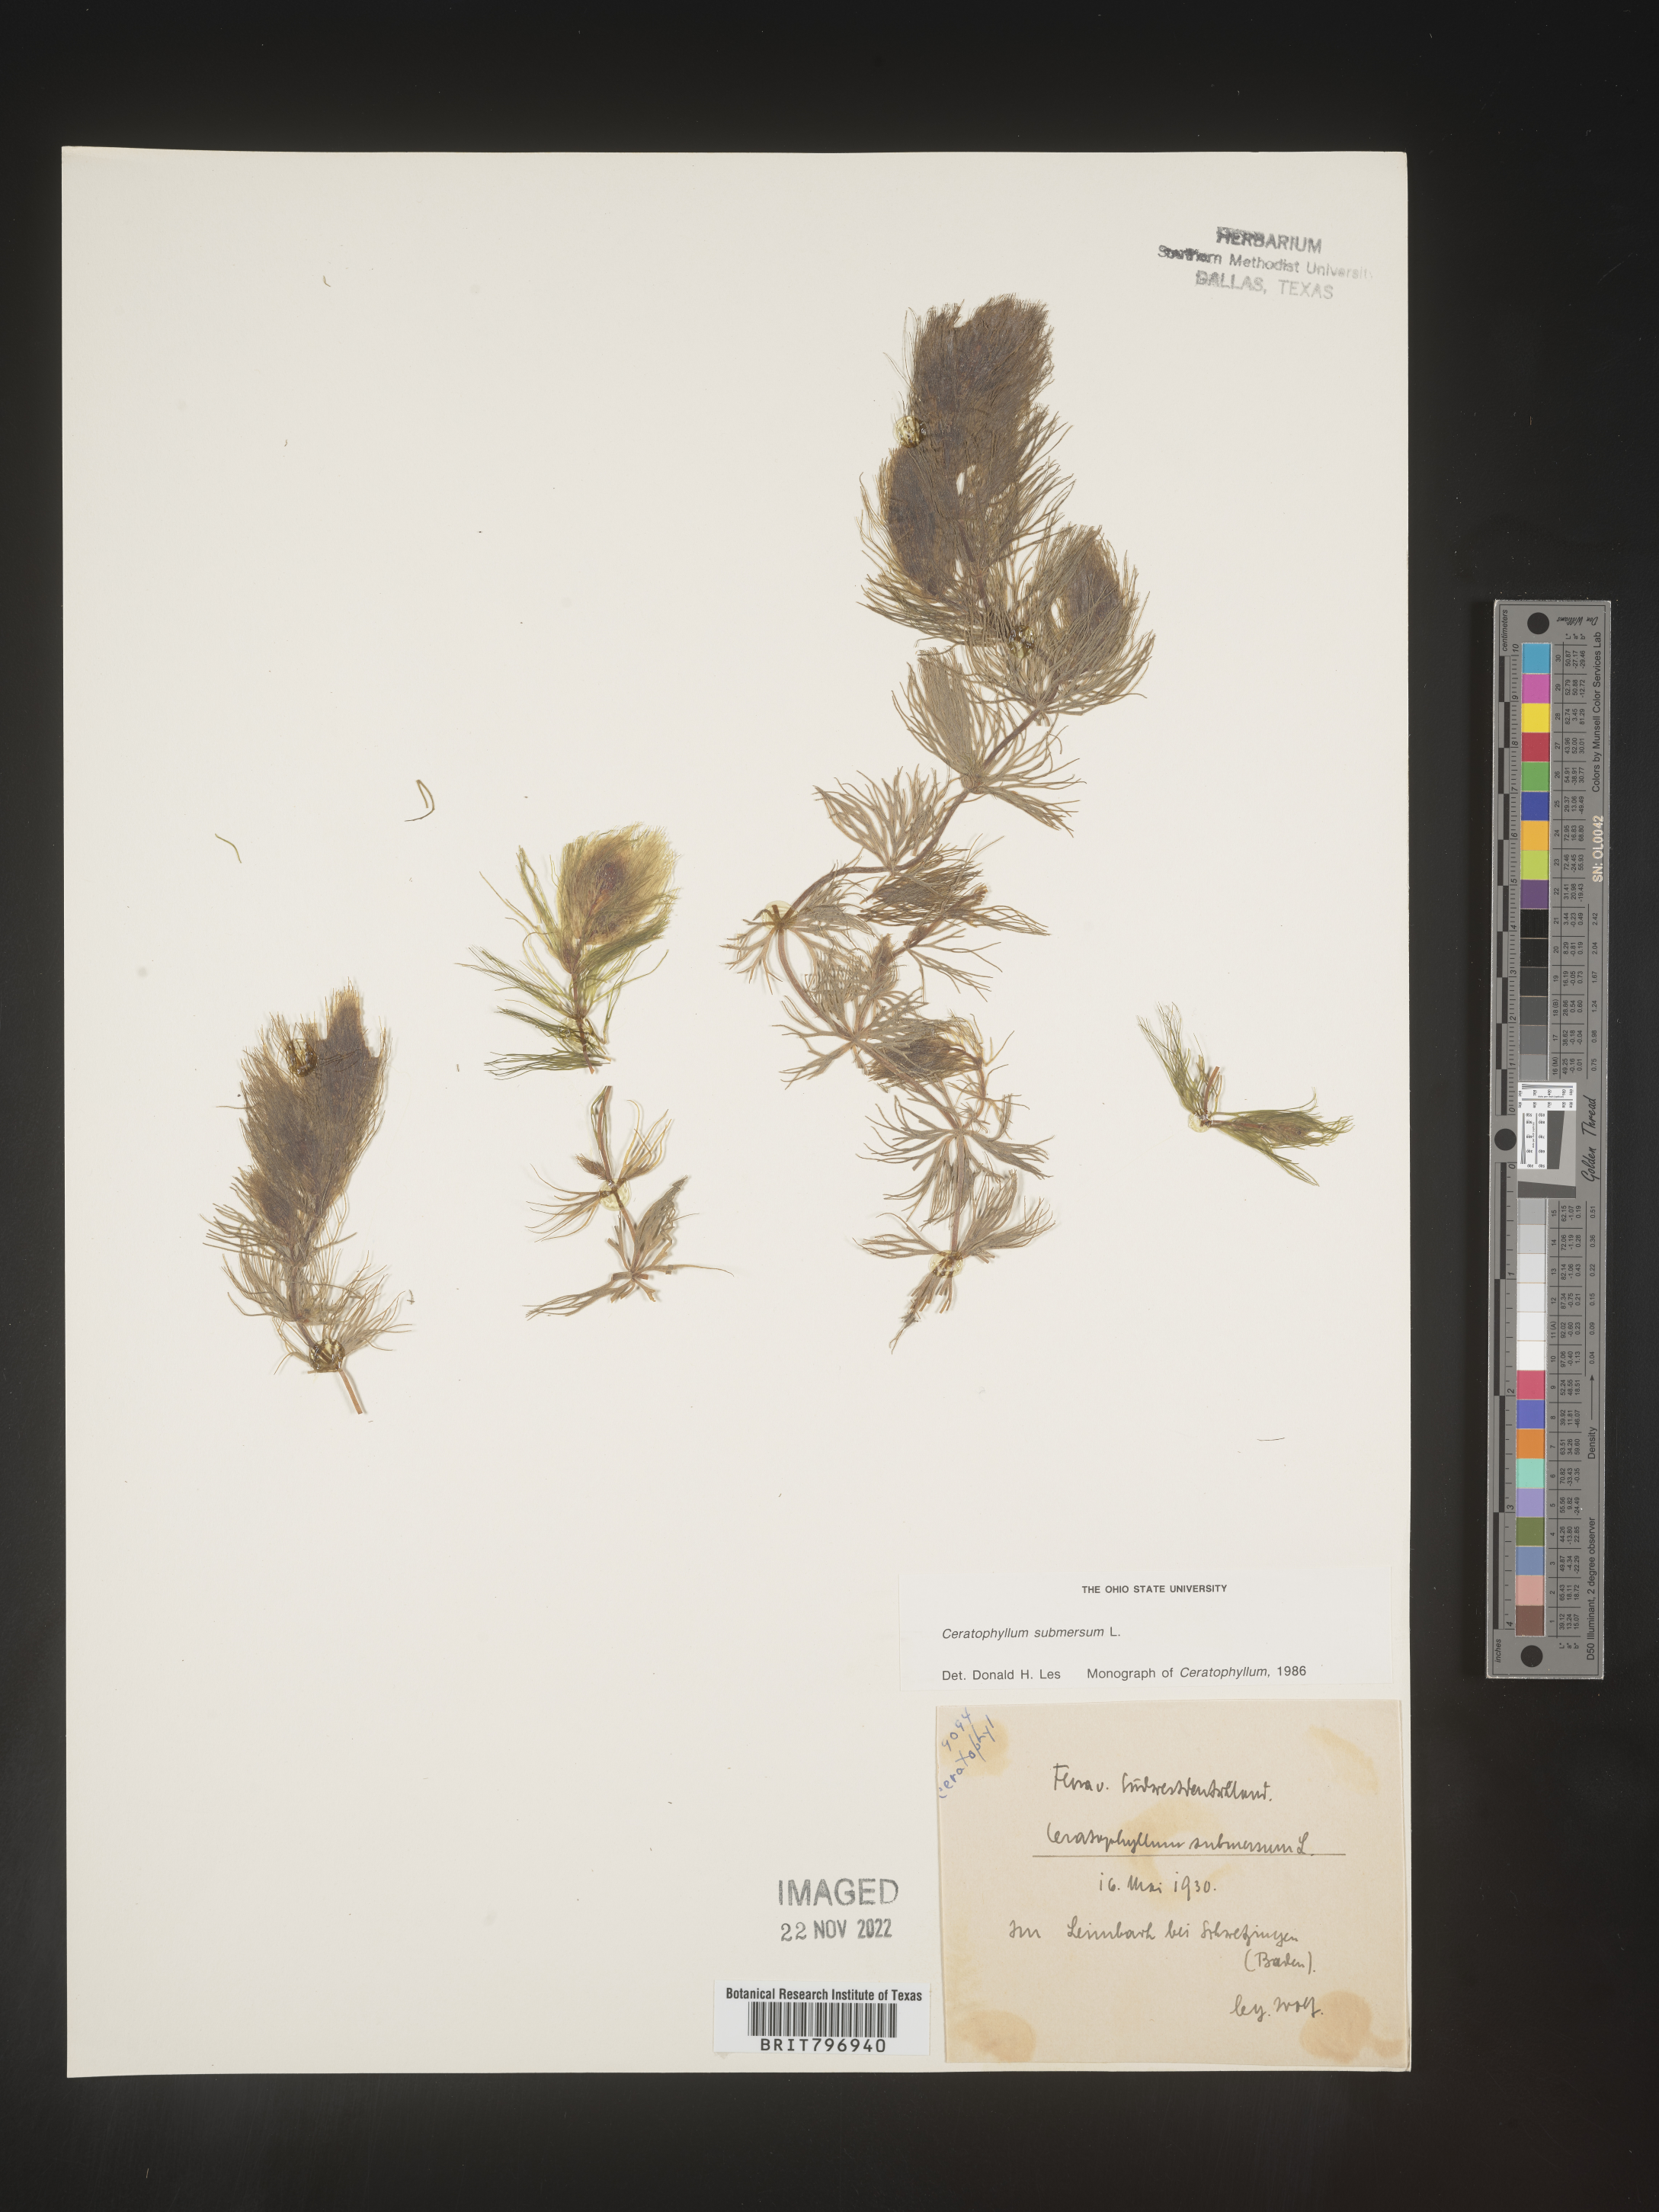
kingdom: Plantae
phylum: Tracheophyta
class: Magnoliopsida
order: Ceratophyllales
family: Ceratophyllaceae
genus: Ceratophyllum
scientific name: Ceratophyllum
